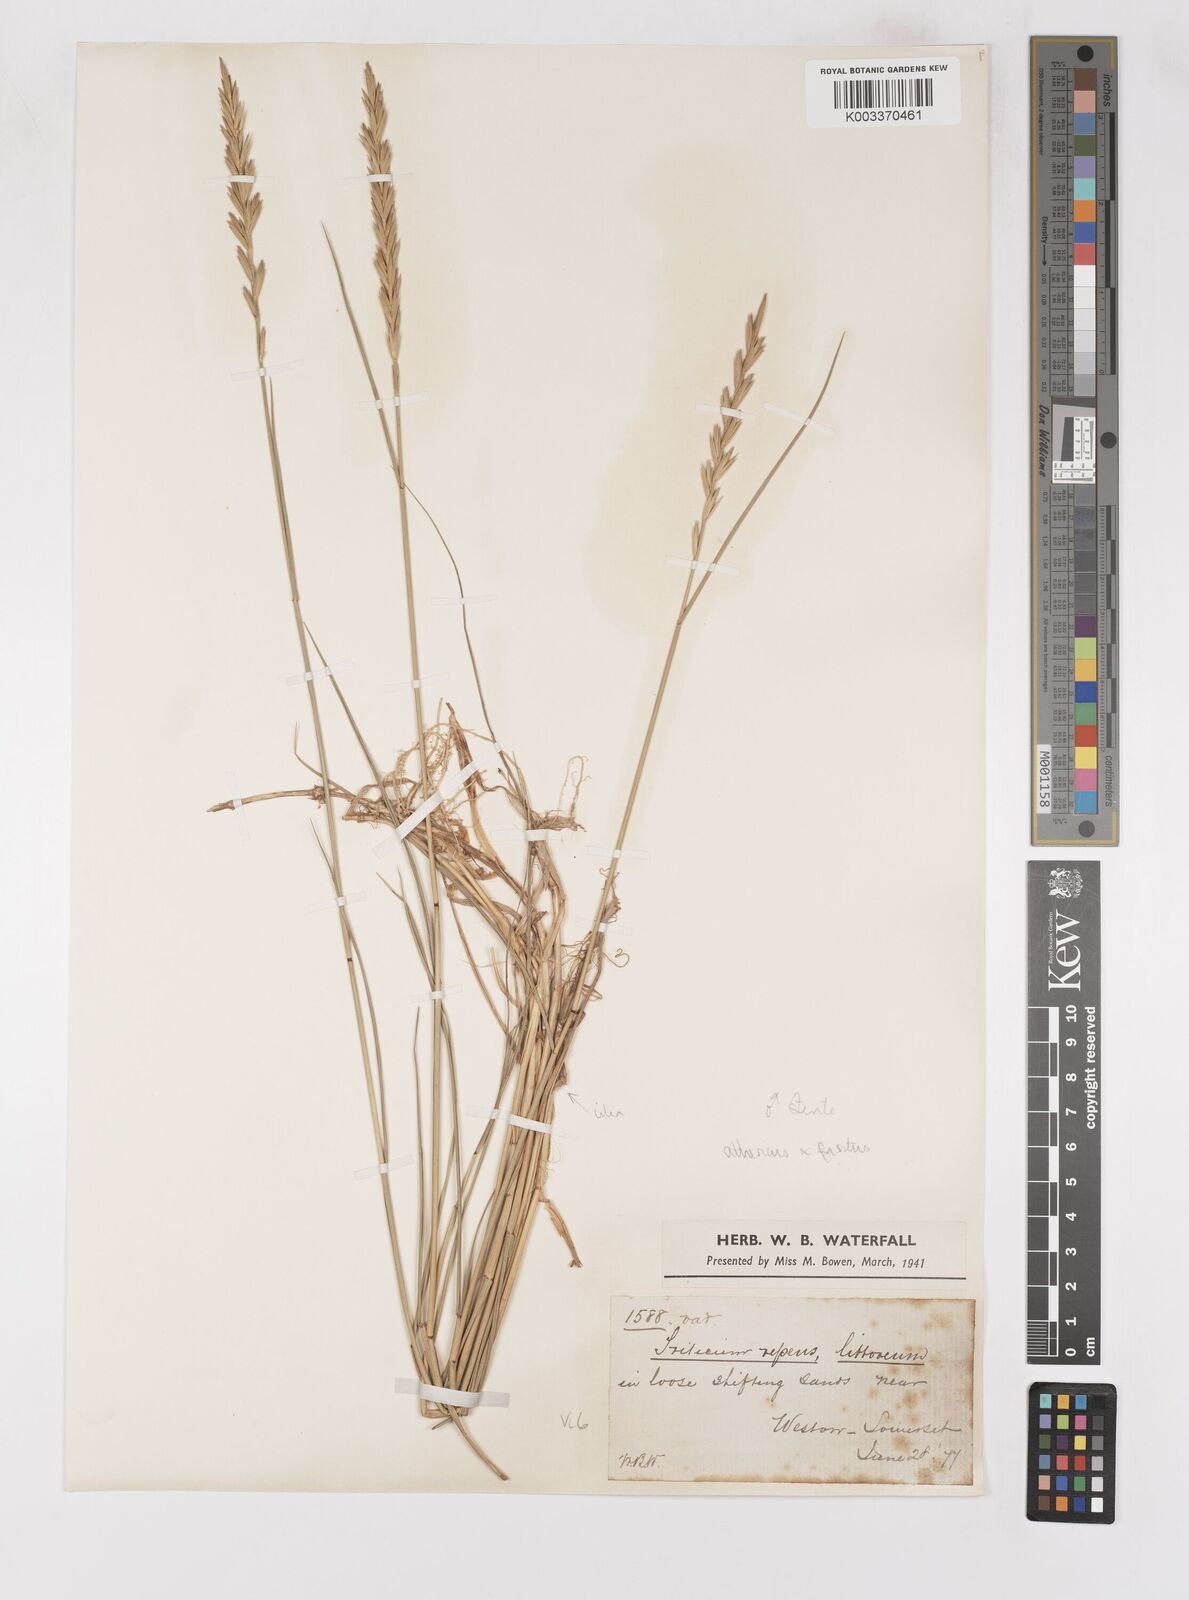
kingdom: Plantae
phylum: Tracheophyta
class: Liliopsida
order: Poales
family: Poaceae
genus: Thinoelymus
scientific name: Thinoelymus obtusiusculus
